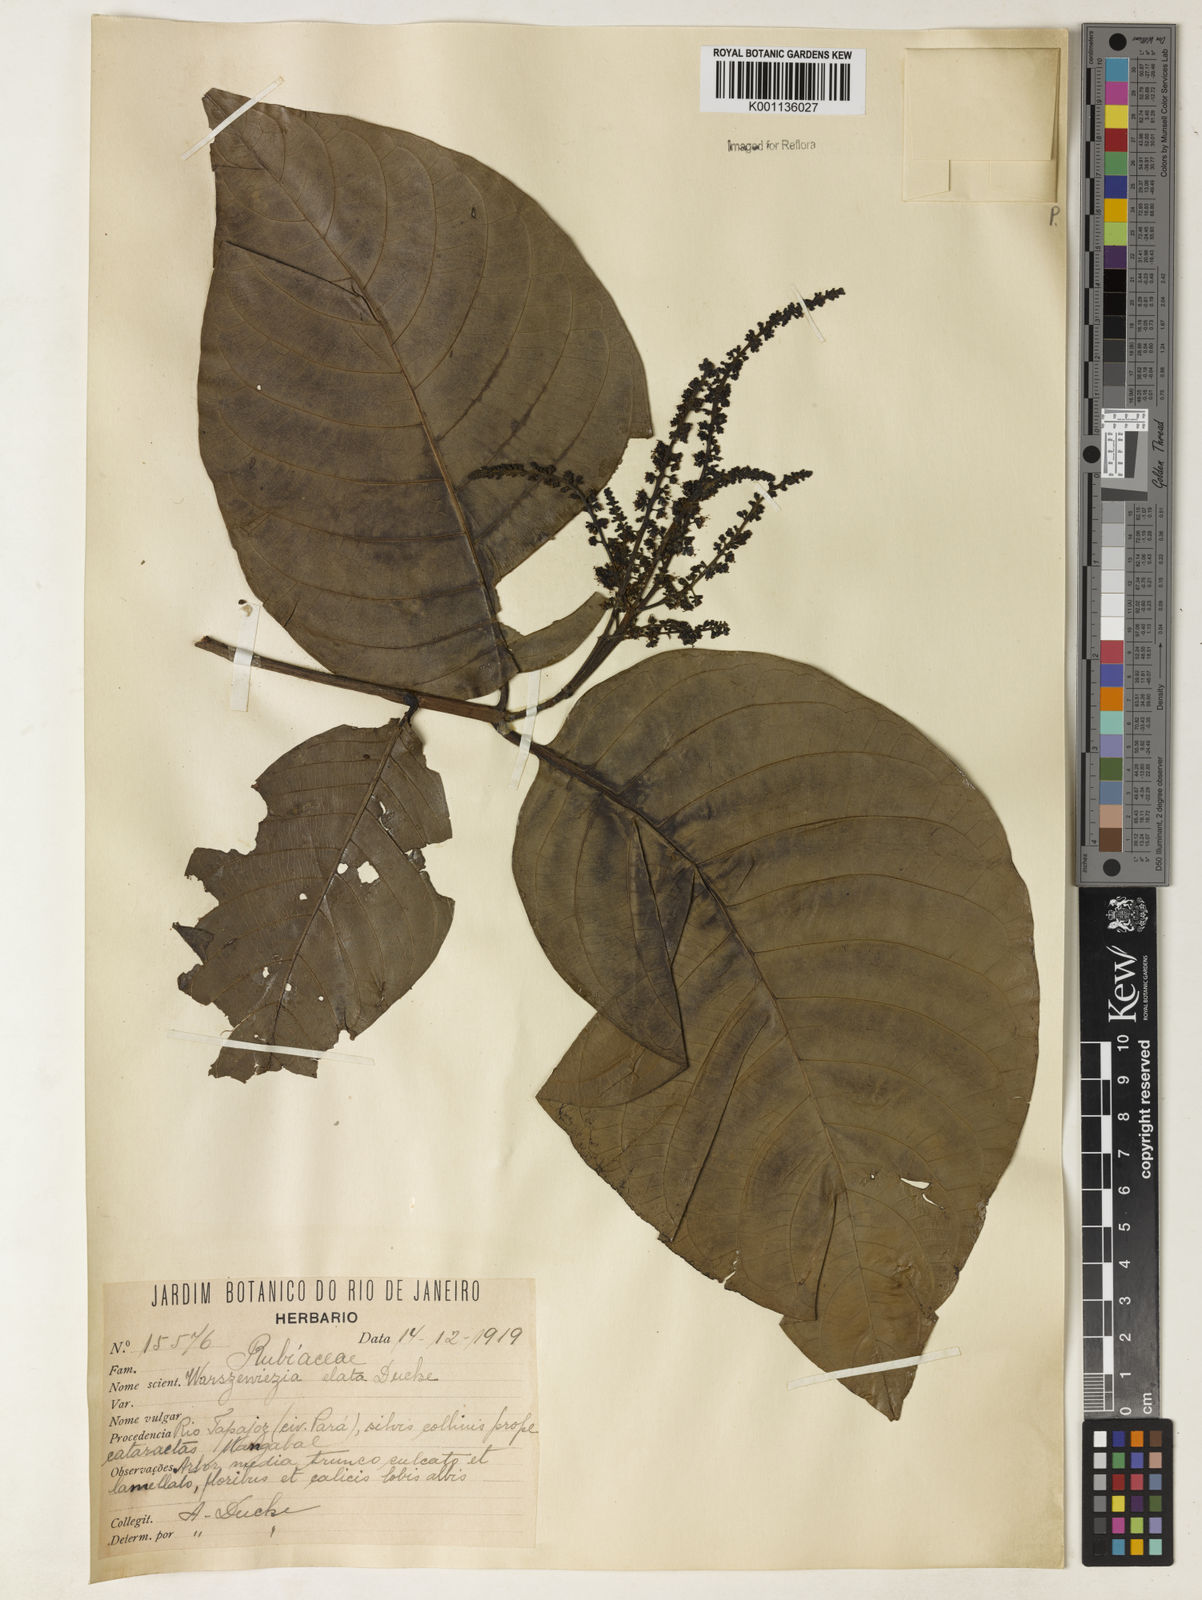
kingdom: Plantae
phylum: Tracheophyta
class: Magnoliopsida
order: Gentianales
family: Rubiaceae
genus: Warszewiczia
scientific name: Warszewiczia elata
